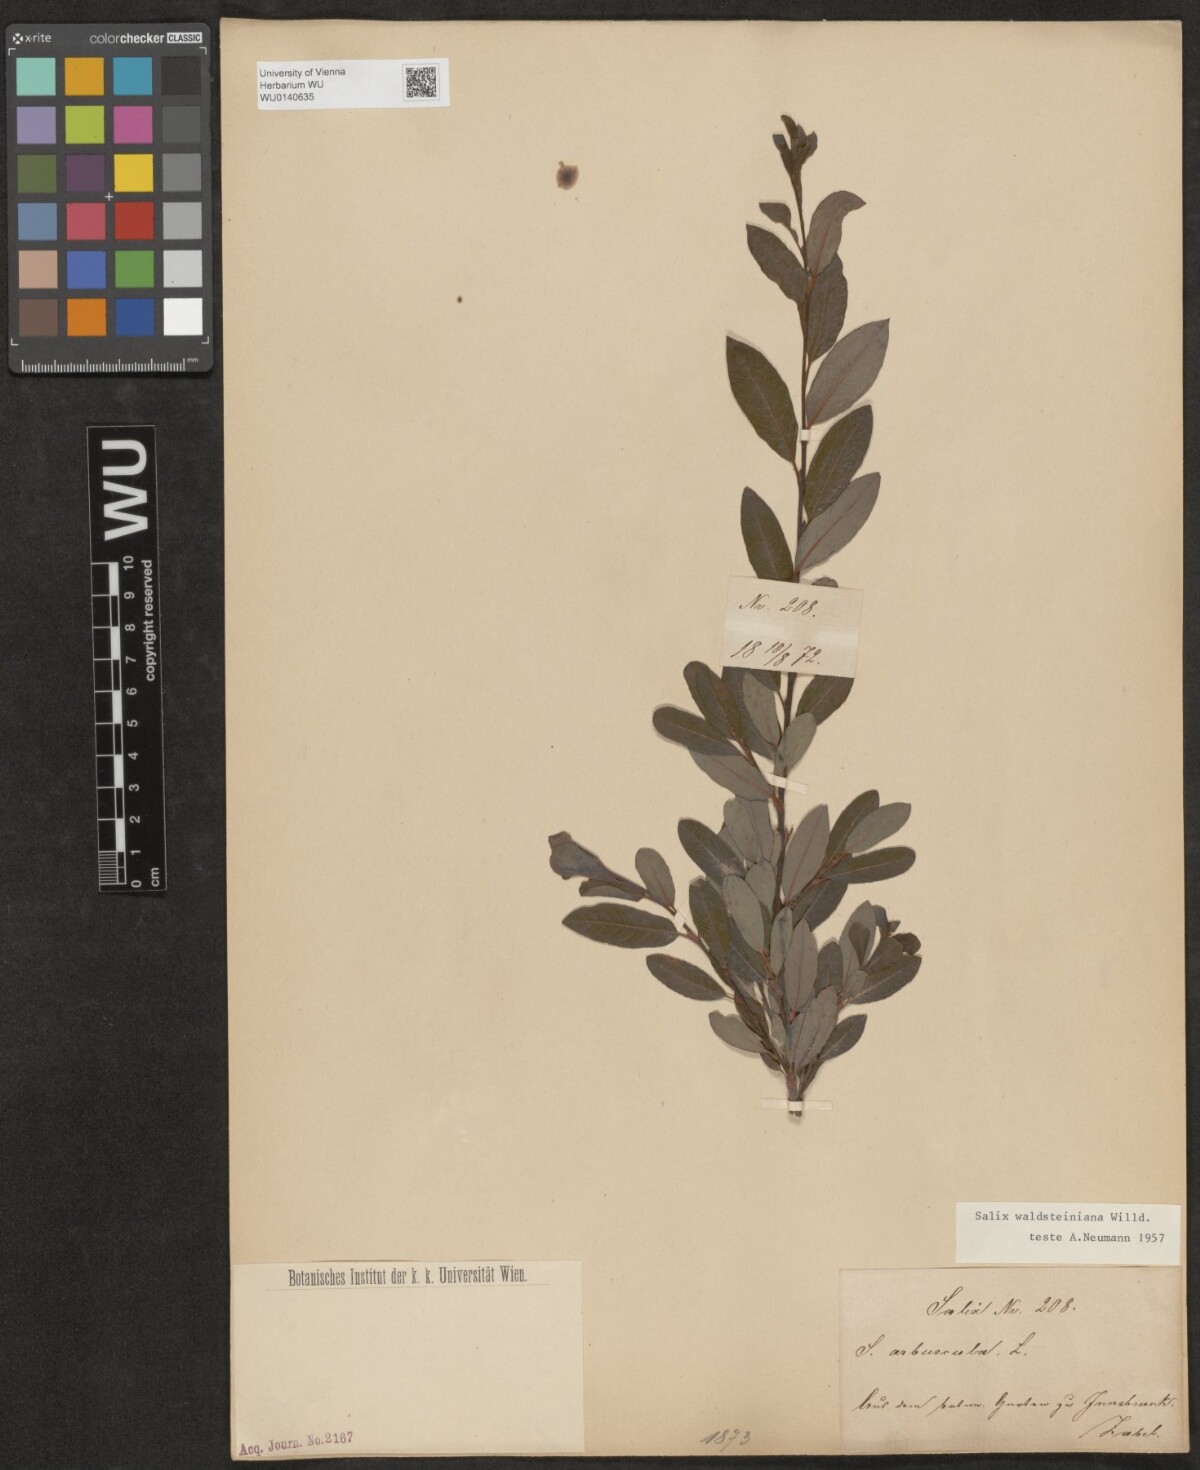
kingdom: Plantae
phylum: Tracheophyta
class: Magnoliopsida
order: Malpighiales
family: Salicaceae
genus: Salix
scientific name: Salix waldsteiniana
